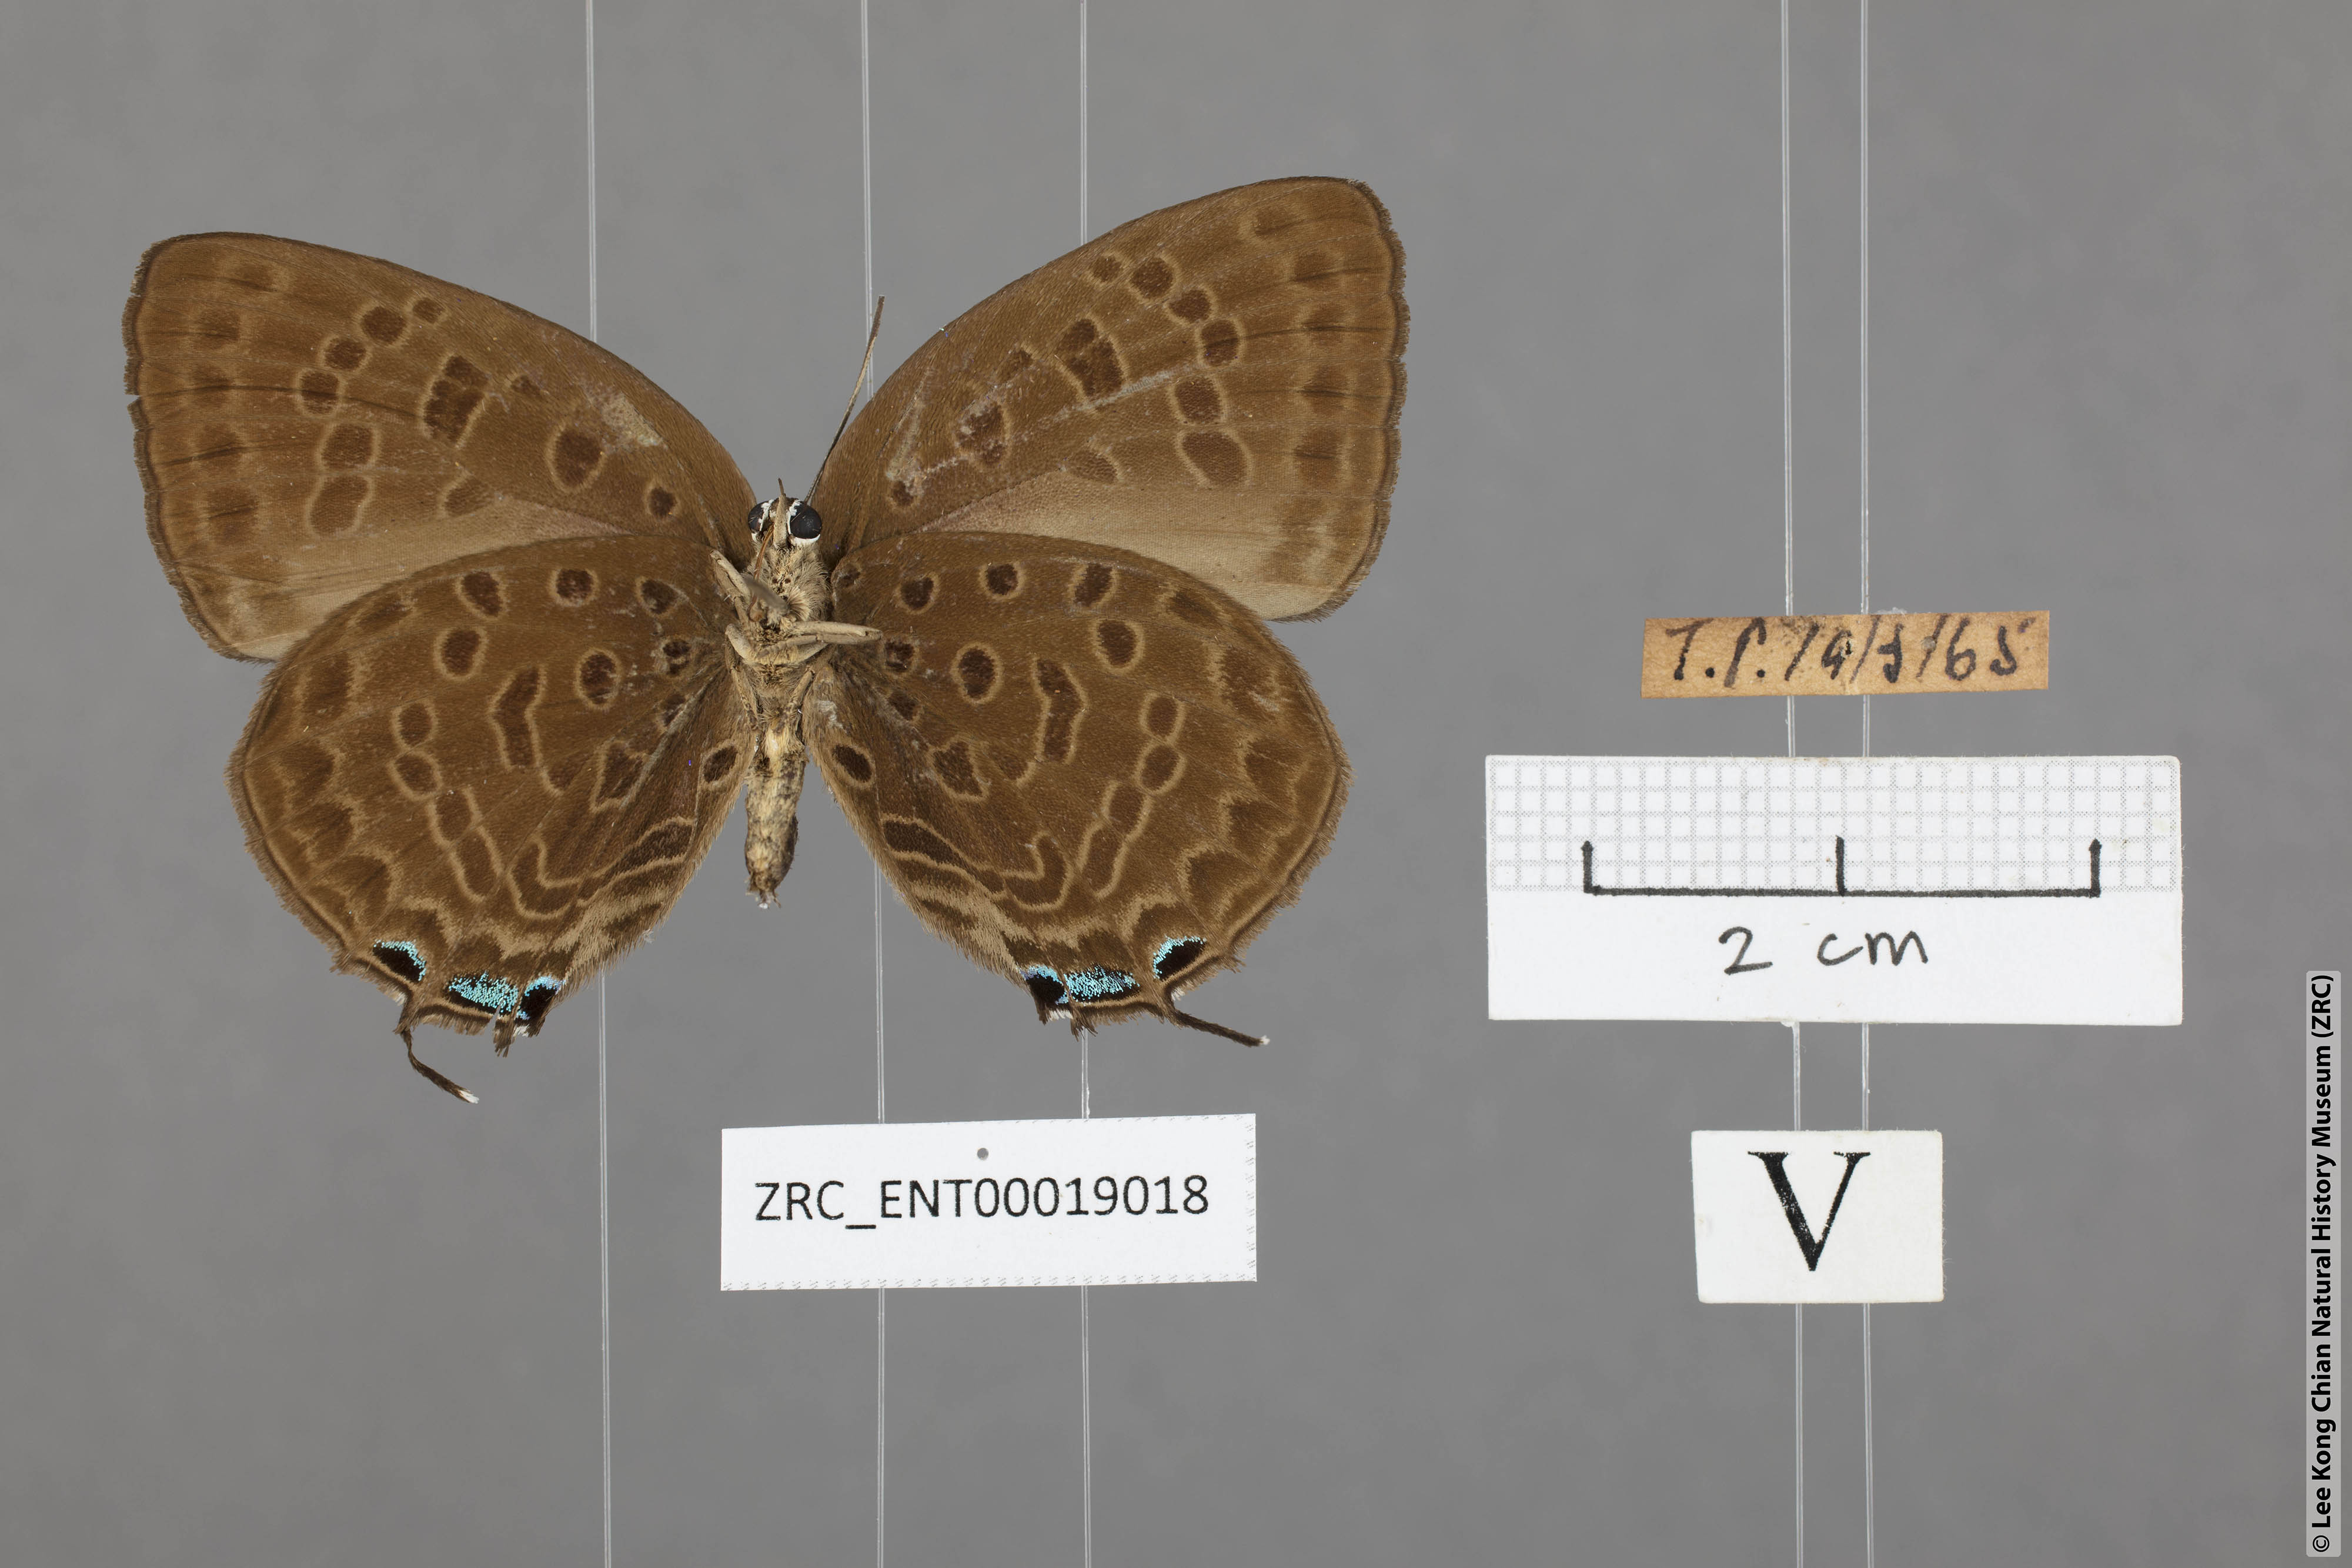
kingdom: Animalia
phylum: Arthropoda
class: Insecta
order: Lepidoptera
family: Lycaenidae
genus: Arhopala
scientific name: Arhopala aedias
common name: Large metallic oakblue
